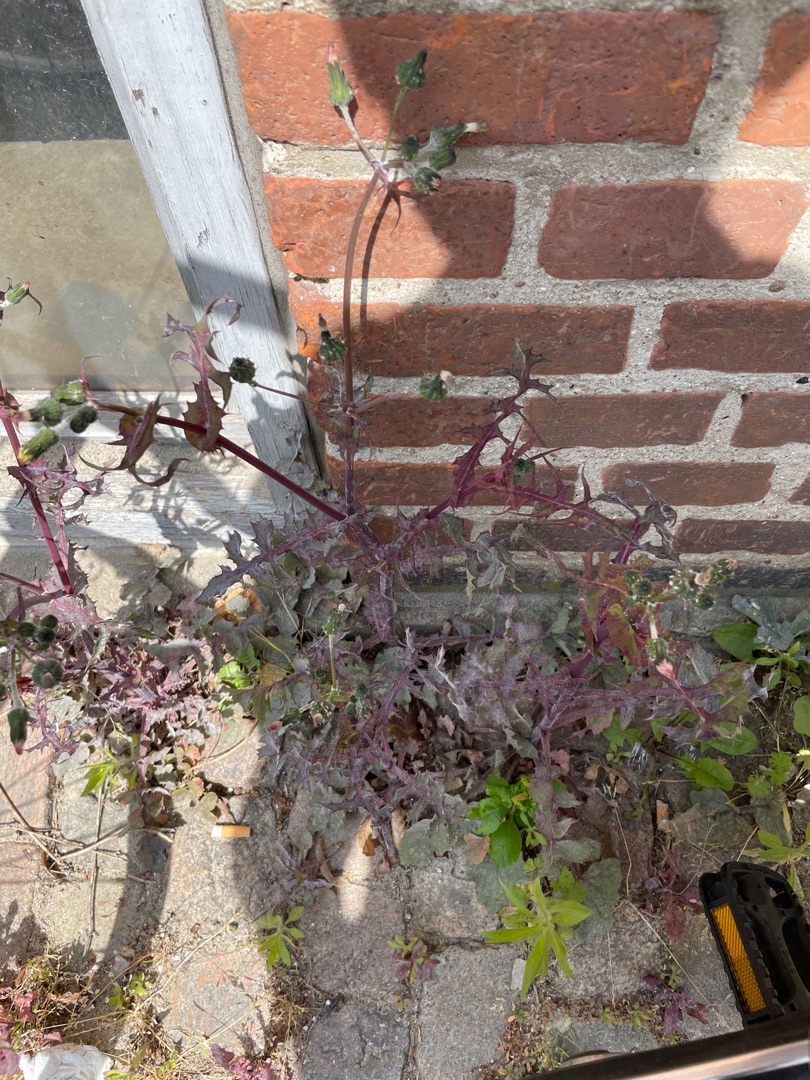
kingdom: Plantae
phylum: Tracheophyta
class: Magnoliopsida
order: Asterales
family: Asteraceae
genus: Sonchus
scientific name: Sonchus oleraceus
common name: Almindelig svinemælk
